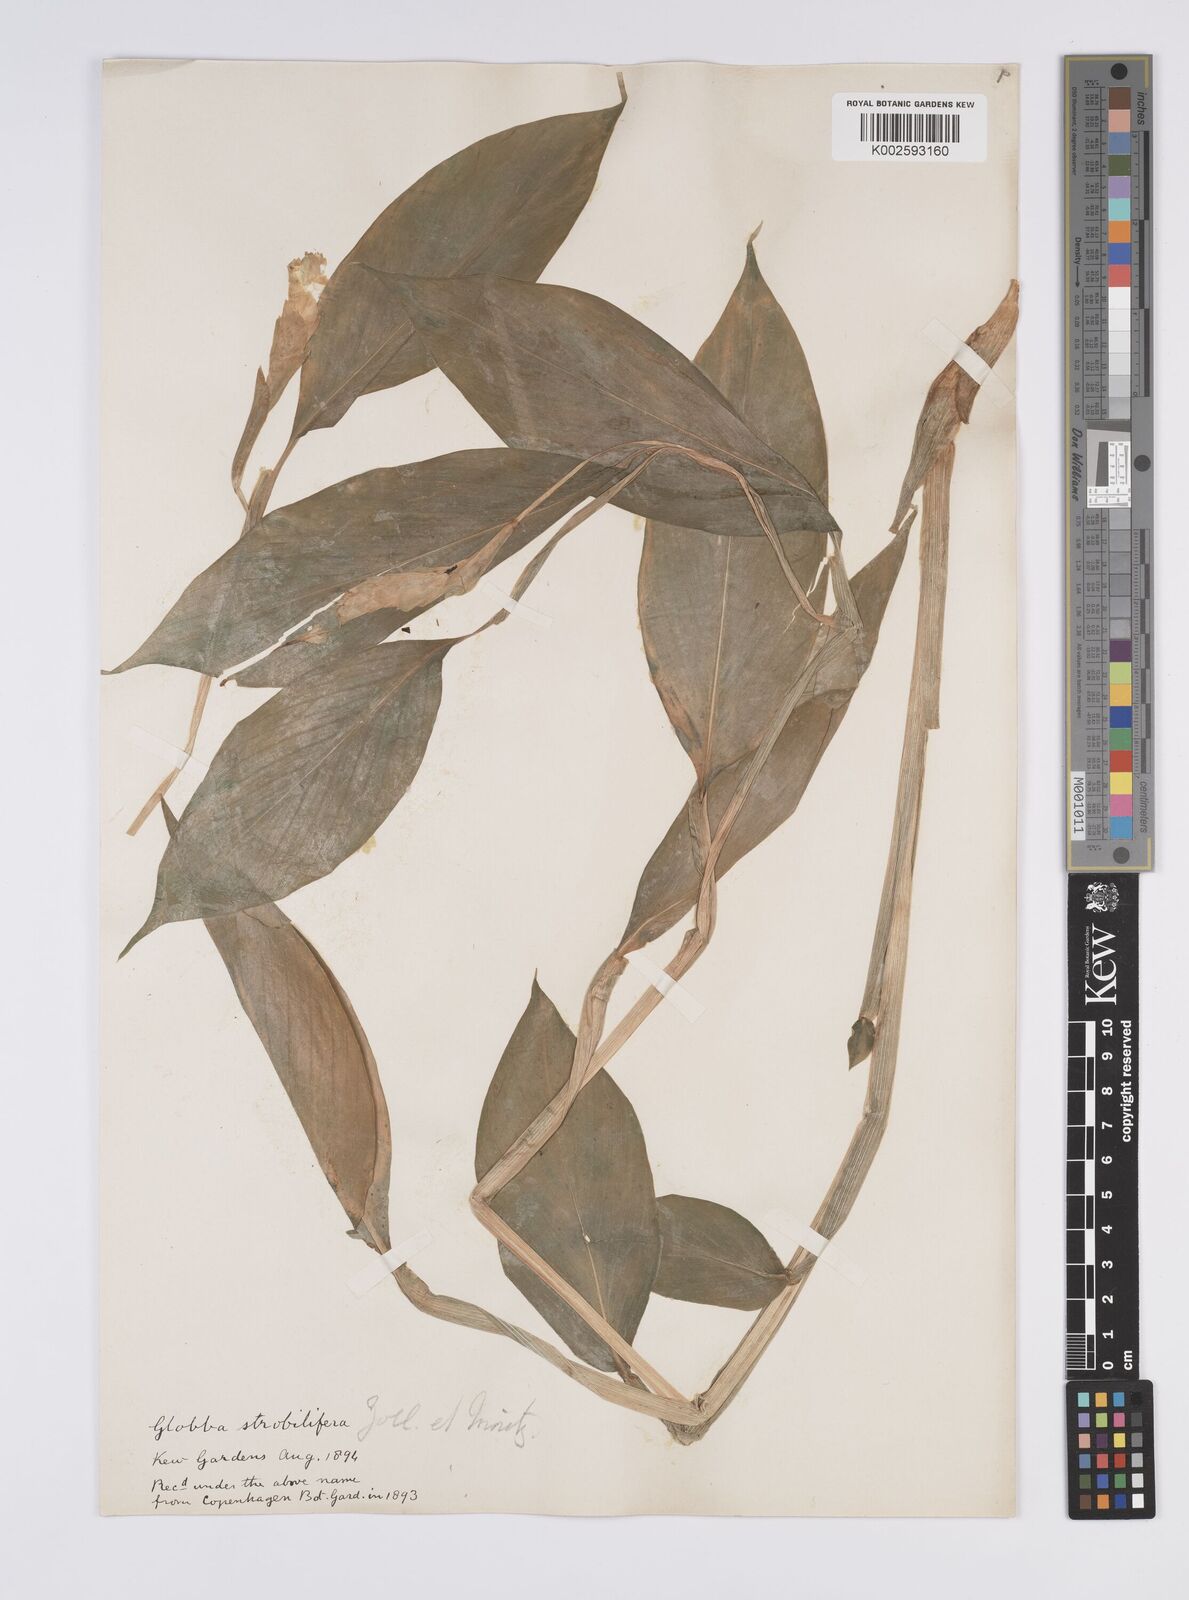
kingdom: Plantae
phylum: Tracheophyta
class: Liliopsida
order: Zingiberales
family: Zingiberaceae
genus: Globba
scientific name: Globba marantina
